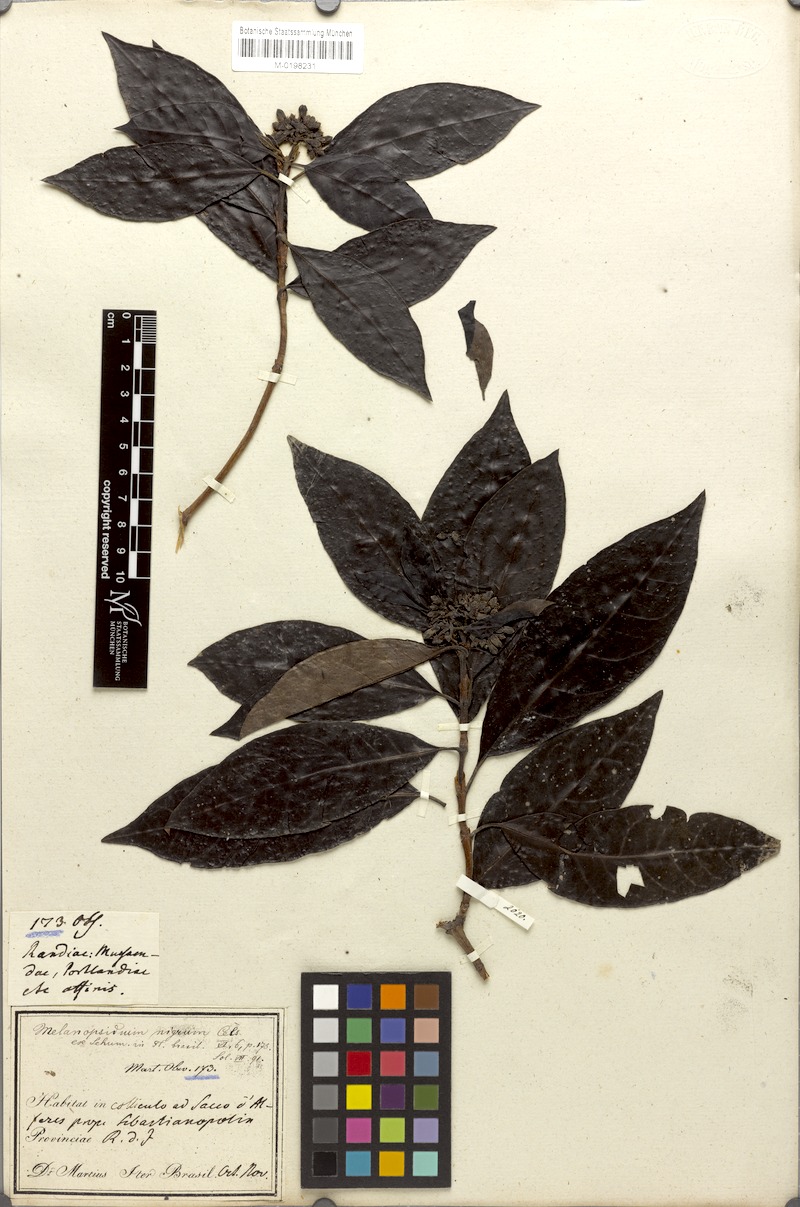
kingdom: Plantae
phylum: Tracheophyta
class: Magnoliopsida
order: Gentianales
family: Rubiaceae
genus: Melanopsidium
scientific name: Melanopsidium nigrum
